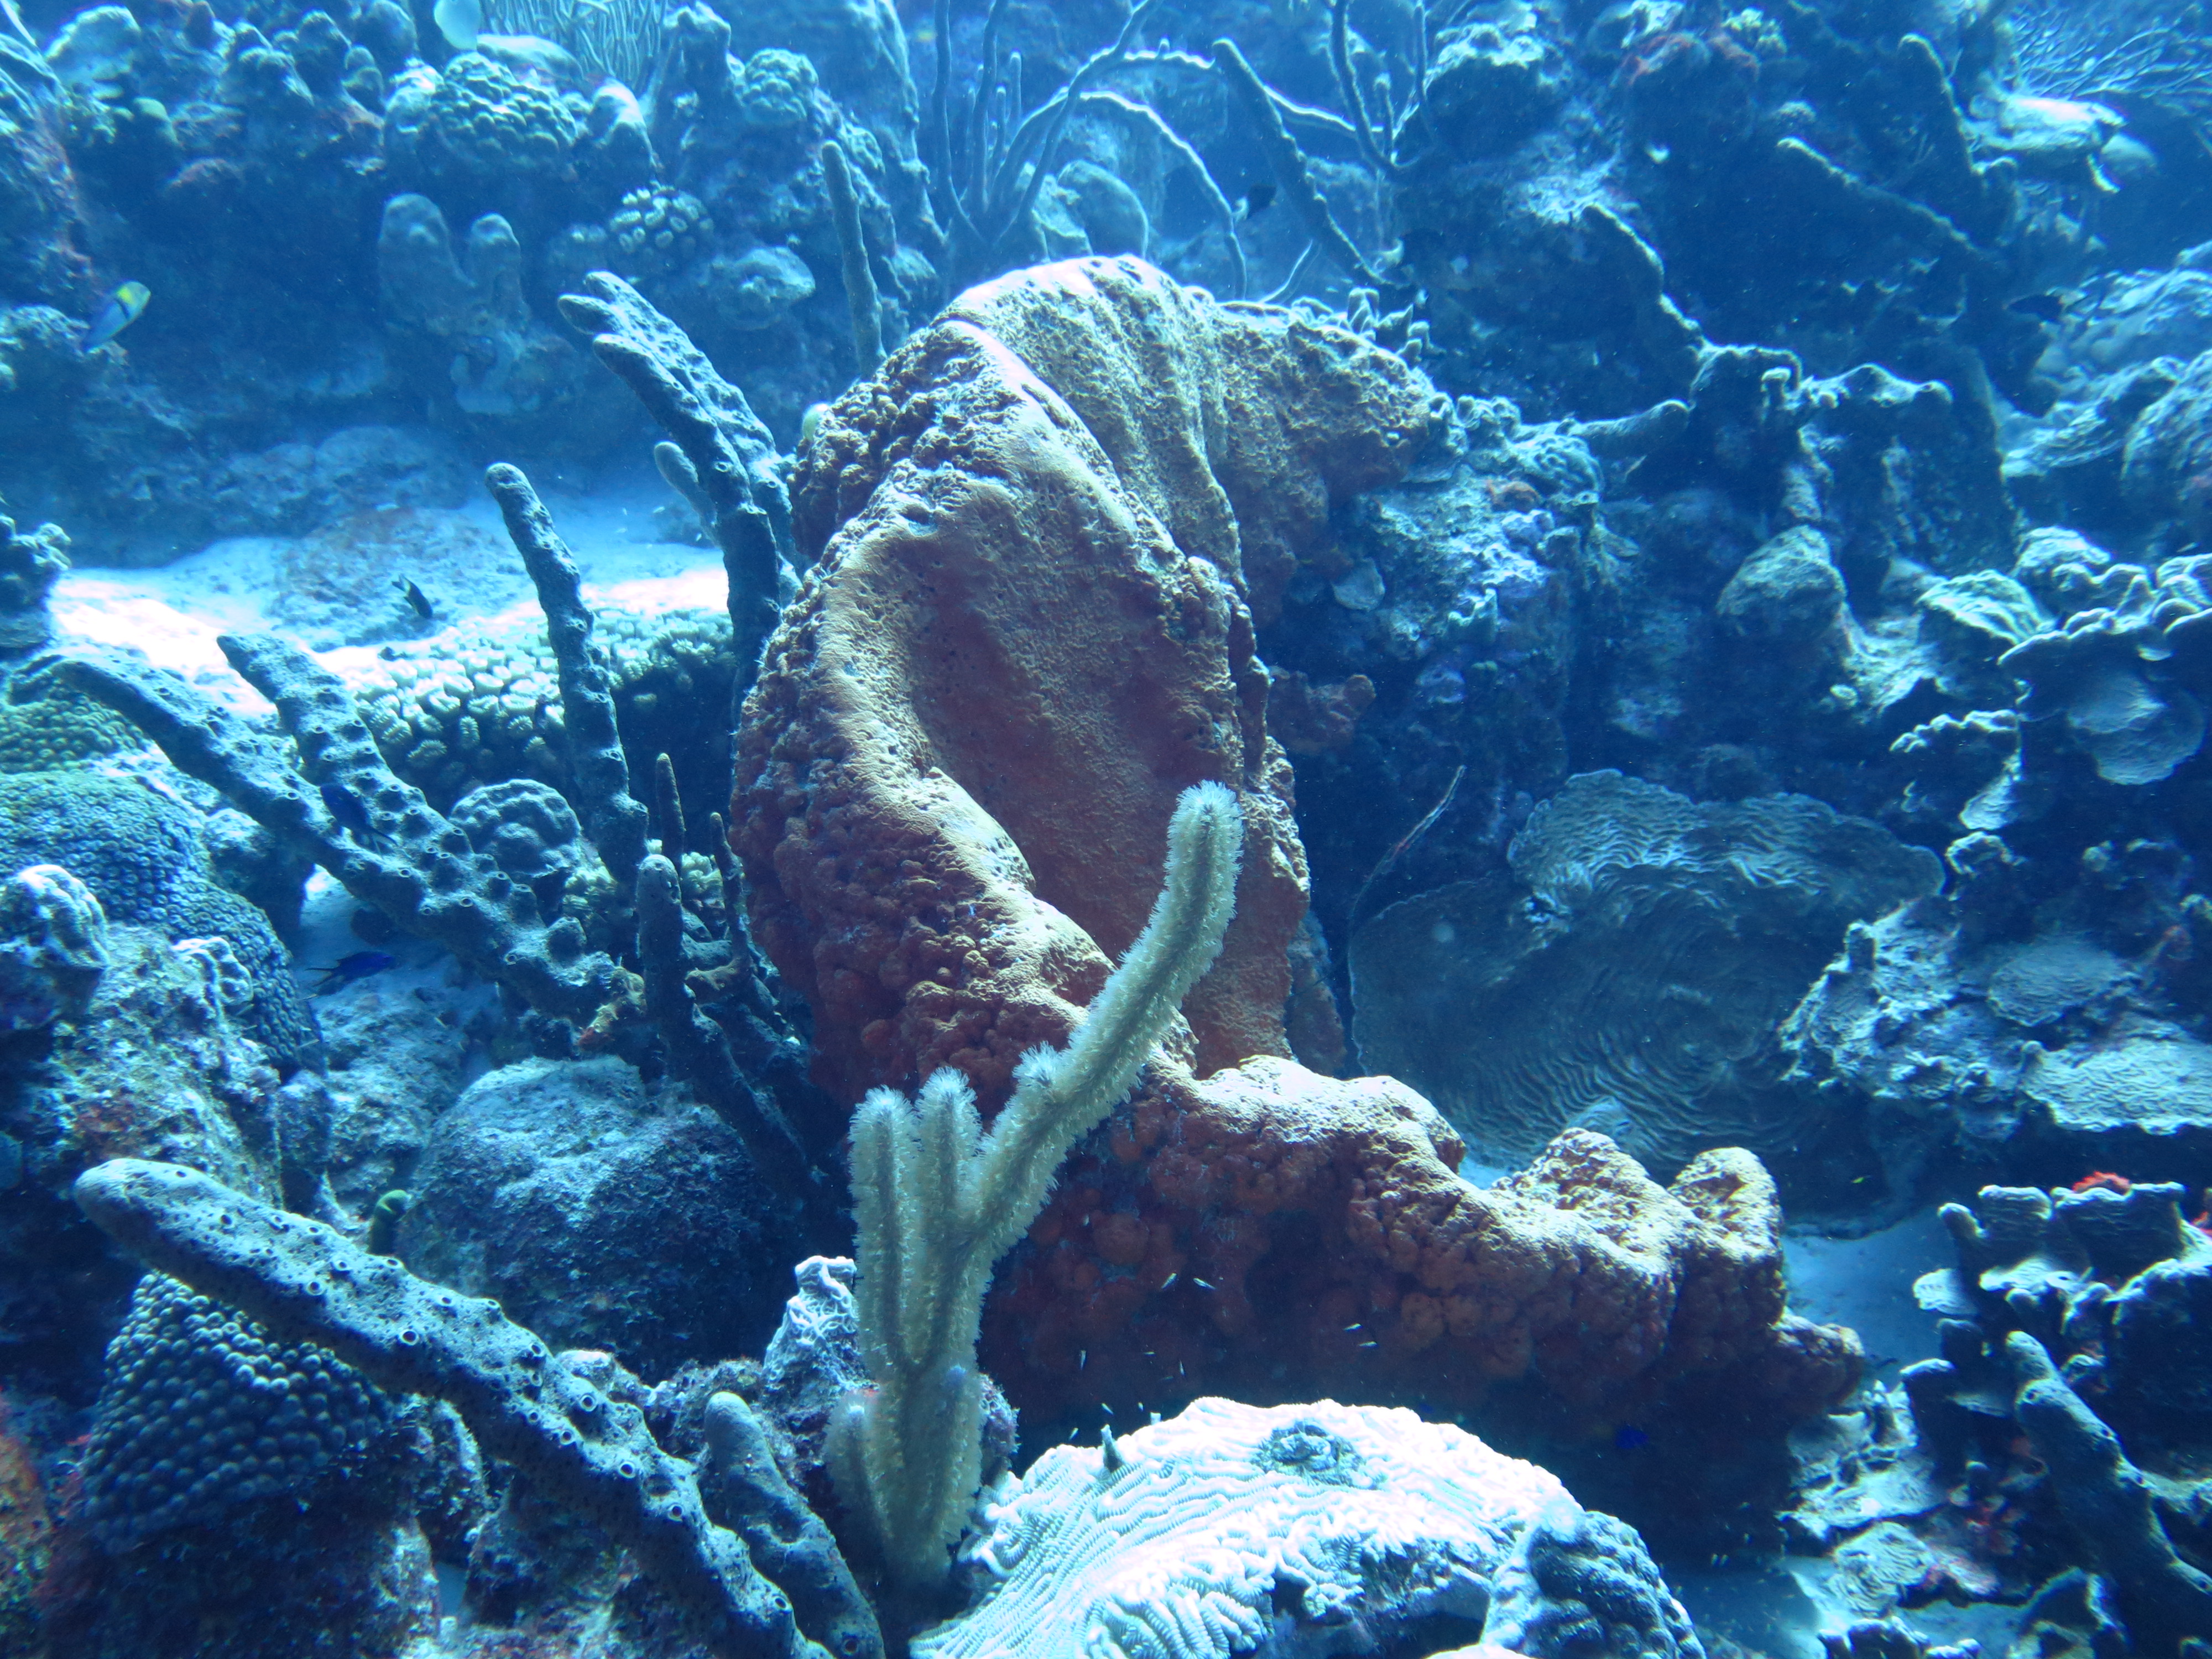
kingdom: Animalia
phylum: Porifera
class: Demospongiae
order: Agelasida
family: Agelasidae
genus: Agelas
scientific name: Agelas
